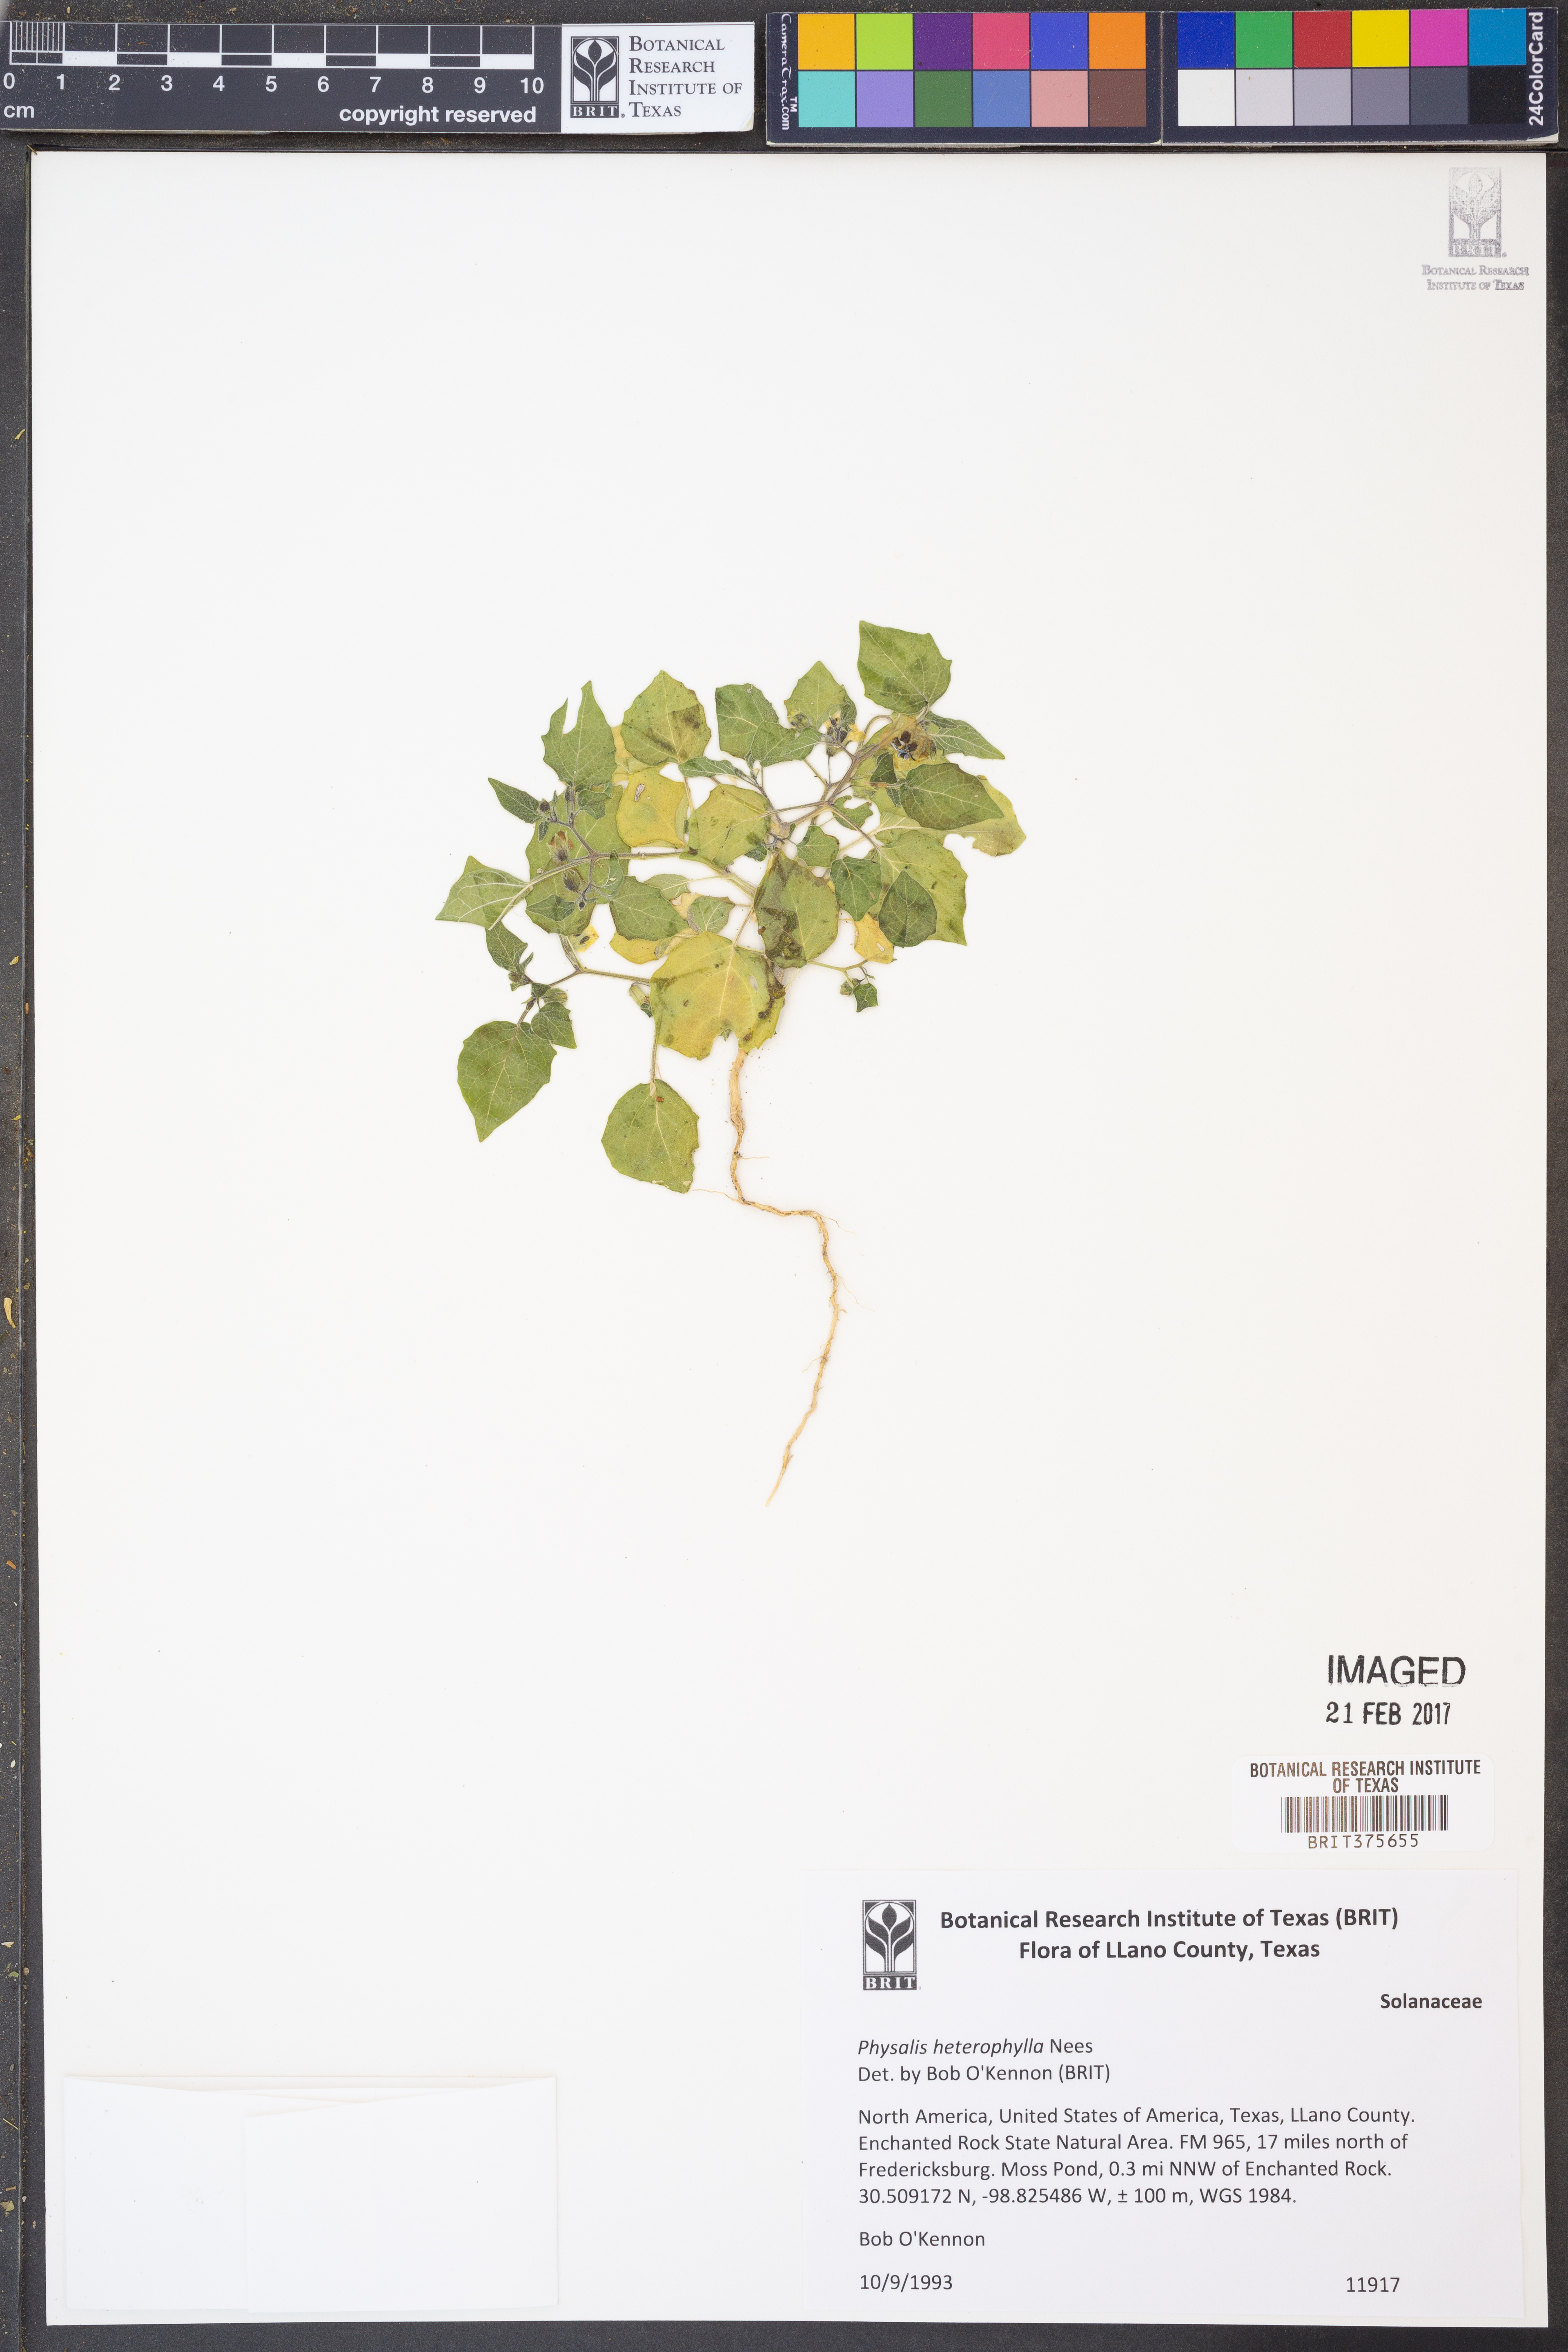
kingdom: Plantae
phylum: Tracheophyta
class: Magnoliopsida
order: Solanales
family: Solanaceae
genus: Physalis
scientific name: Physalis heterophylla
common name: Clammy ground-cherry
